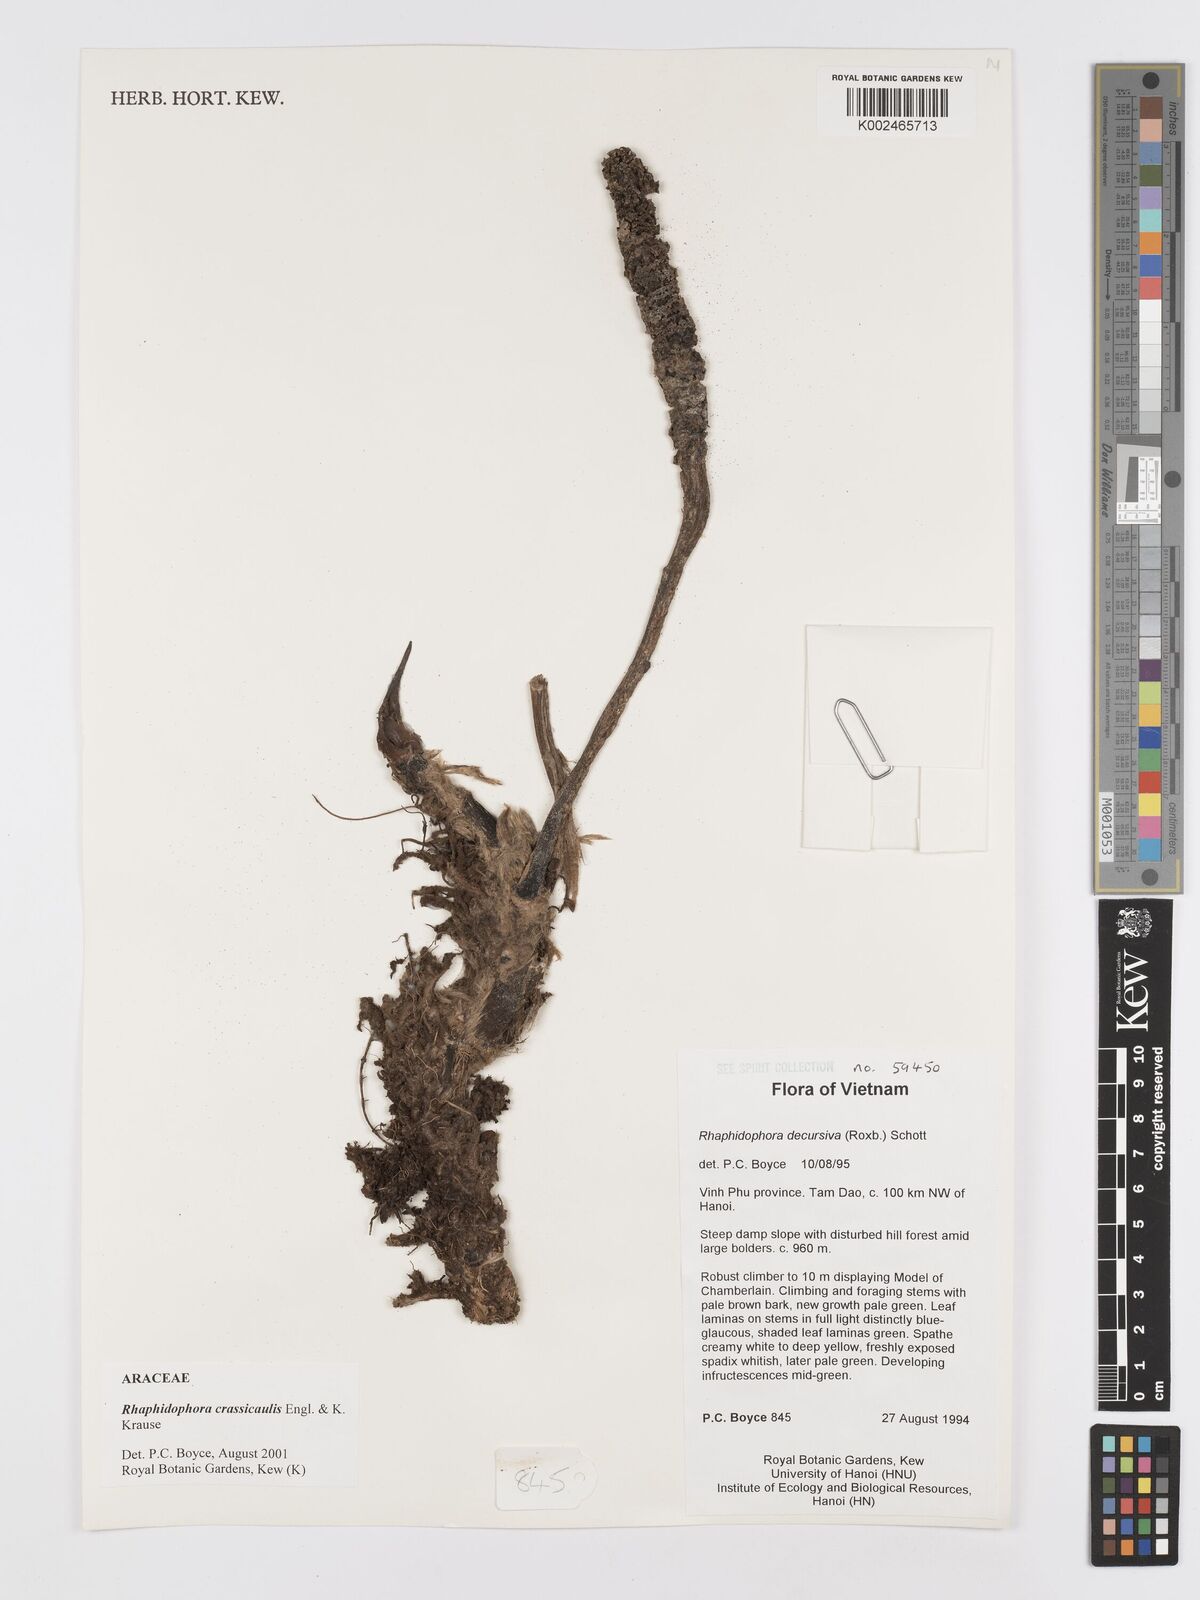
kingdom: Plantae
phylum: Tracheophyta
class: Liliopsida
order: Alismatales
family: Araceae
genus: Rhaphidophora
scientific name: Rhaphidophora crassicaulis
